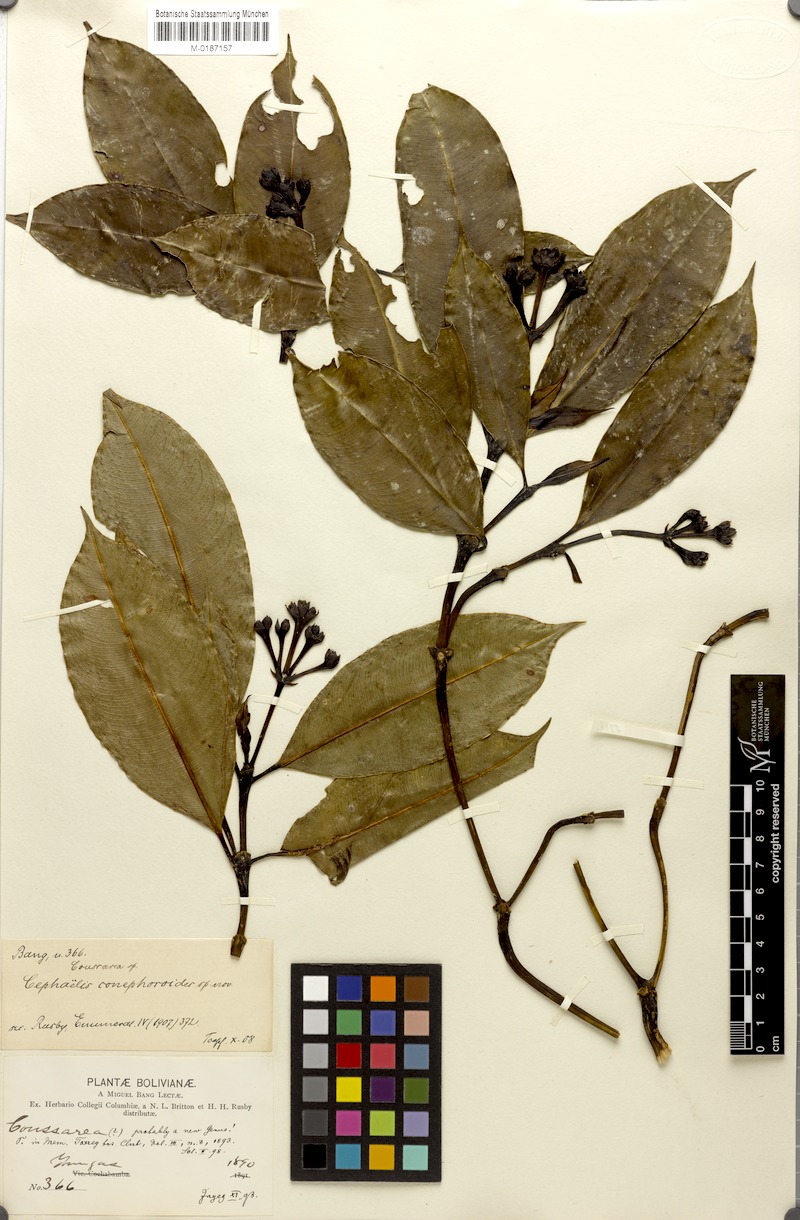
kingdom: Plantae
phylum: Tracheophyta
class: Magnoliopsida
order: Gentianales
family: Rubiaceae
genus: Palicourea
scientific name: Palicourea conephoroides
